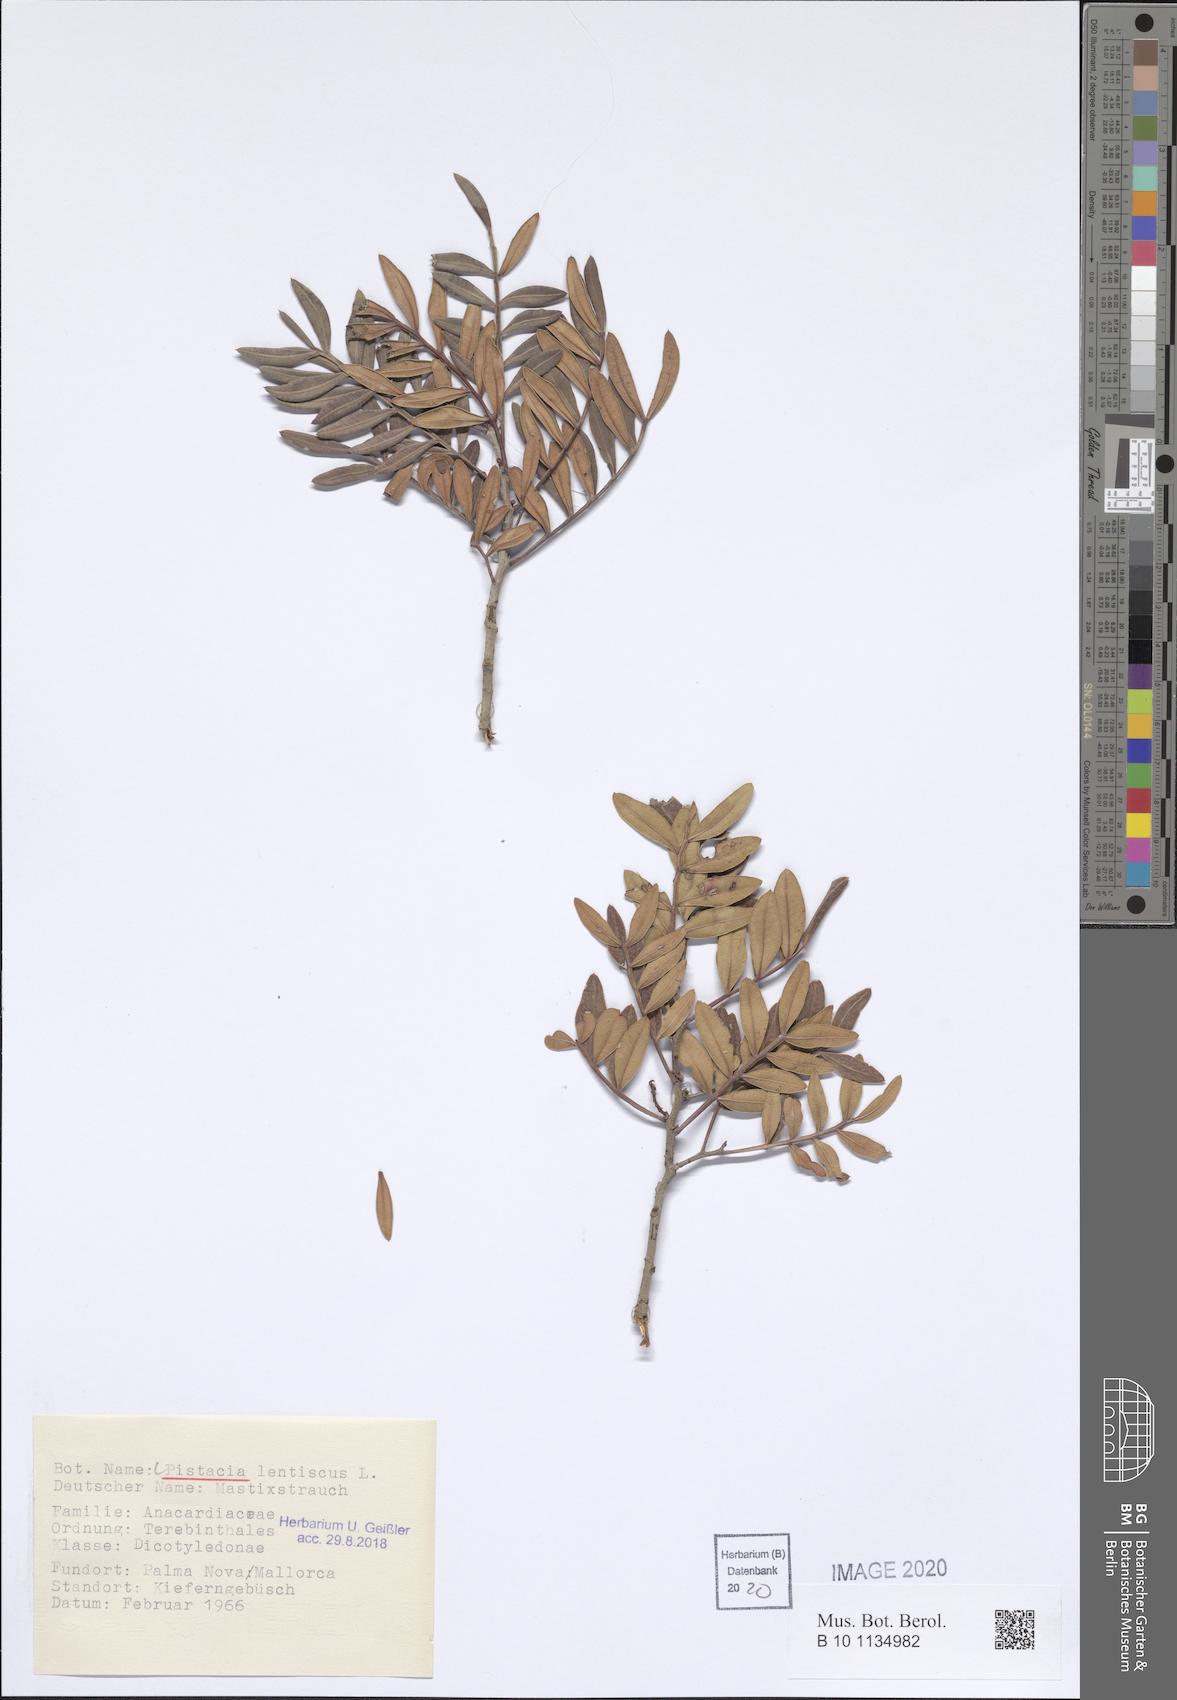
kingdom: Plantae
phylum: Tracheophyta
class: Magnoliopsida
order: Sapindales
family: Anacardiaceae
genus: Pistacia
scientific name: Pistacia lentiscus
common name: Lentisk
